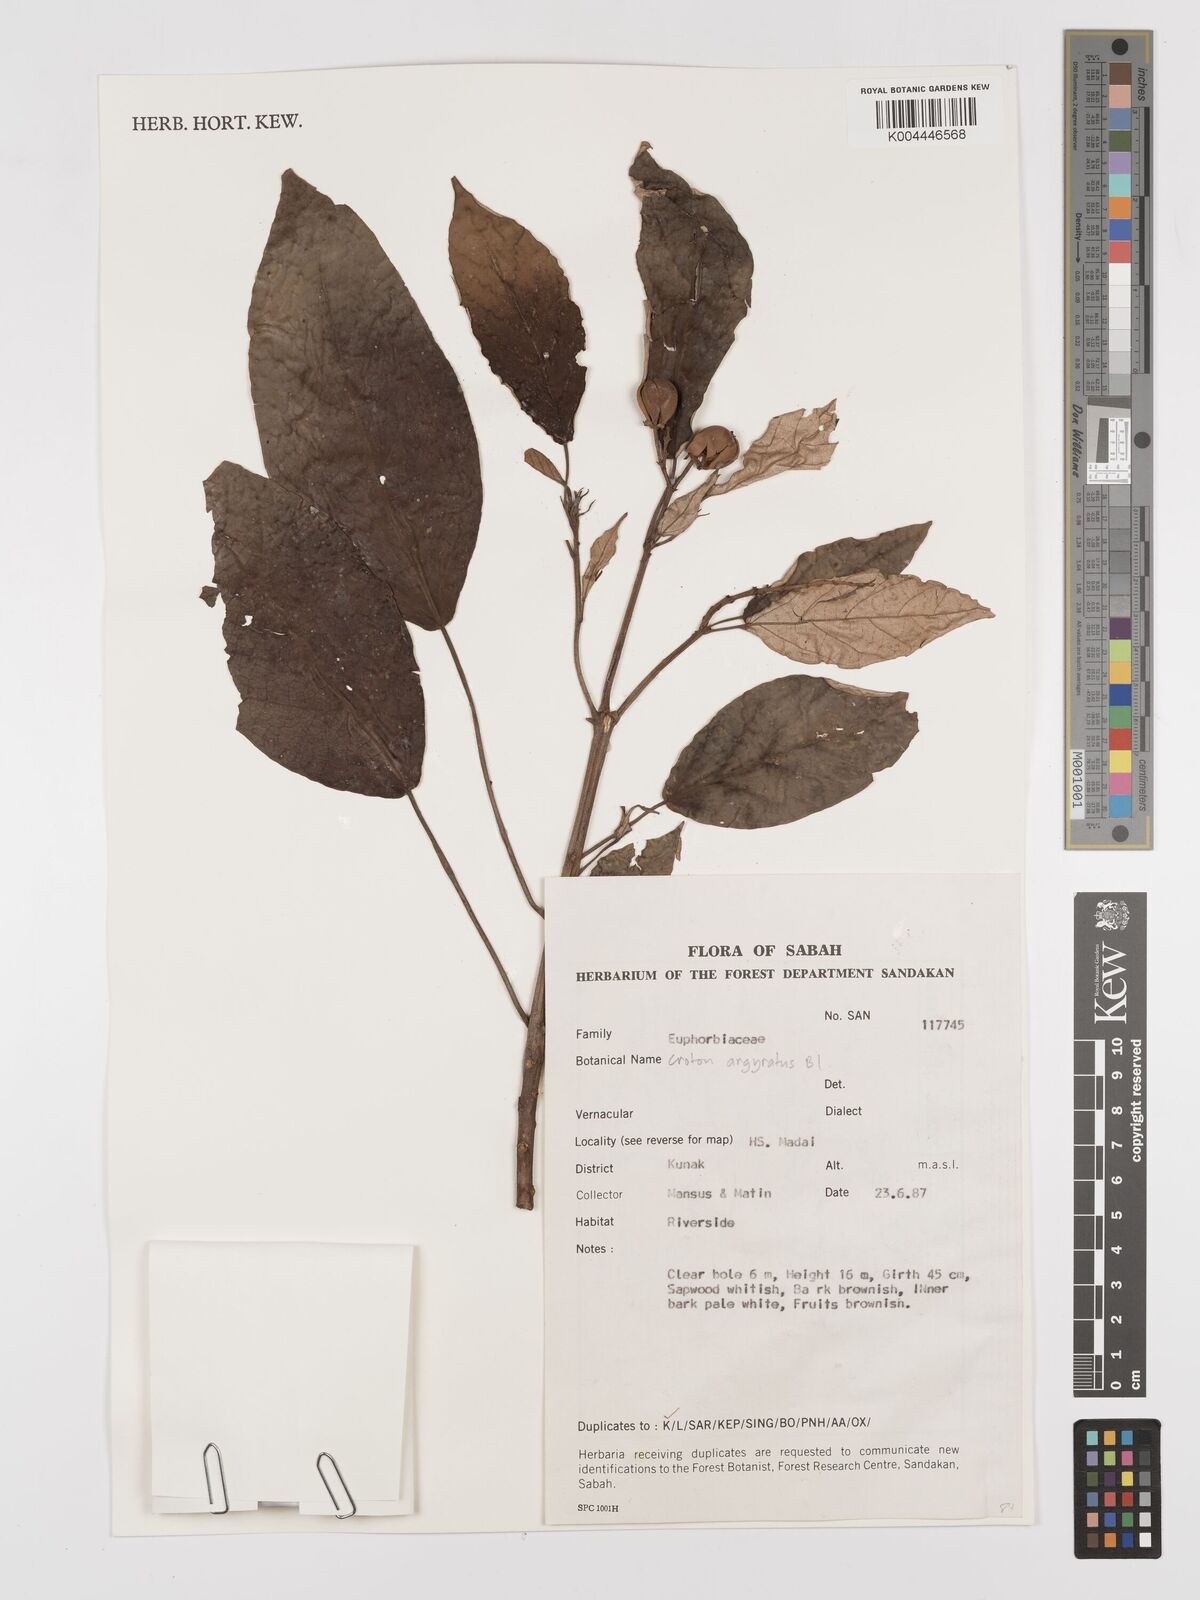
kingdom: Plantae
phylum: Tracheophyta
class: Magnoliopsida
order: Malpighiales
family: Euphorbiaceae
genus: Croton
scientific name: Croton argyratus
